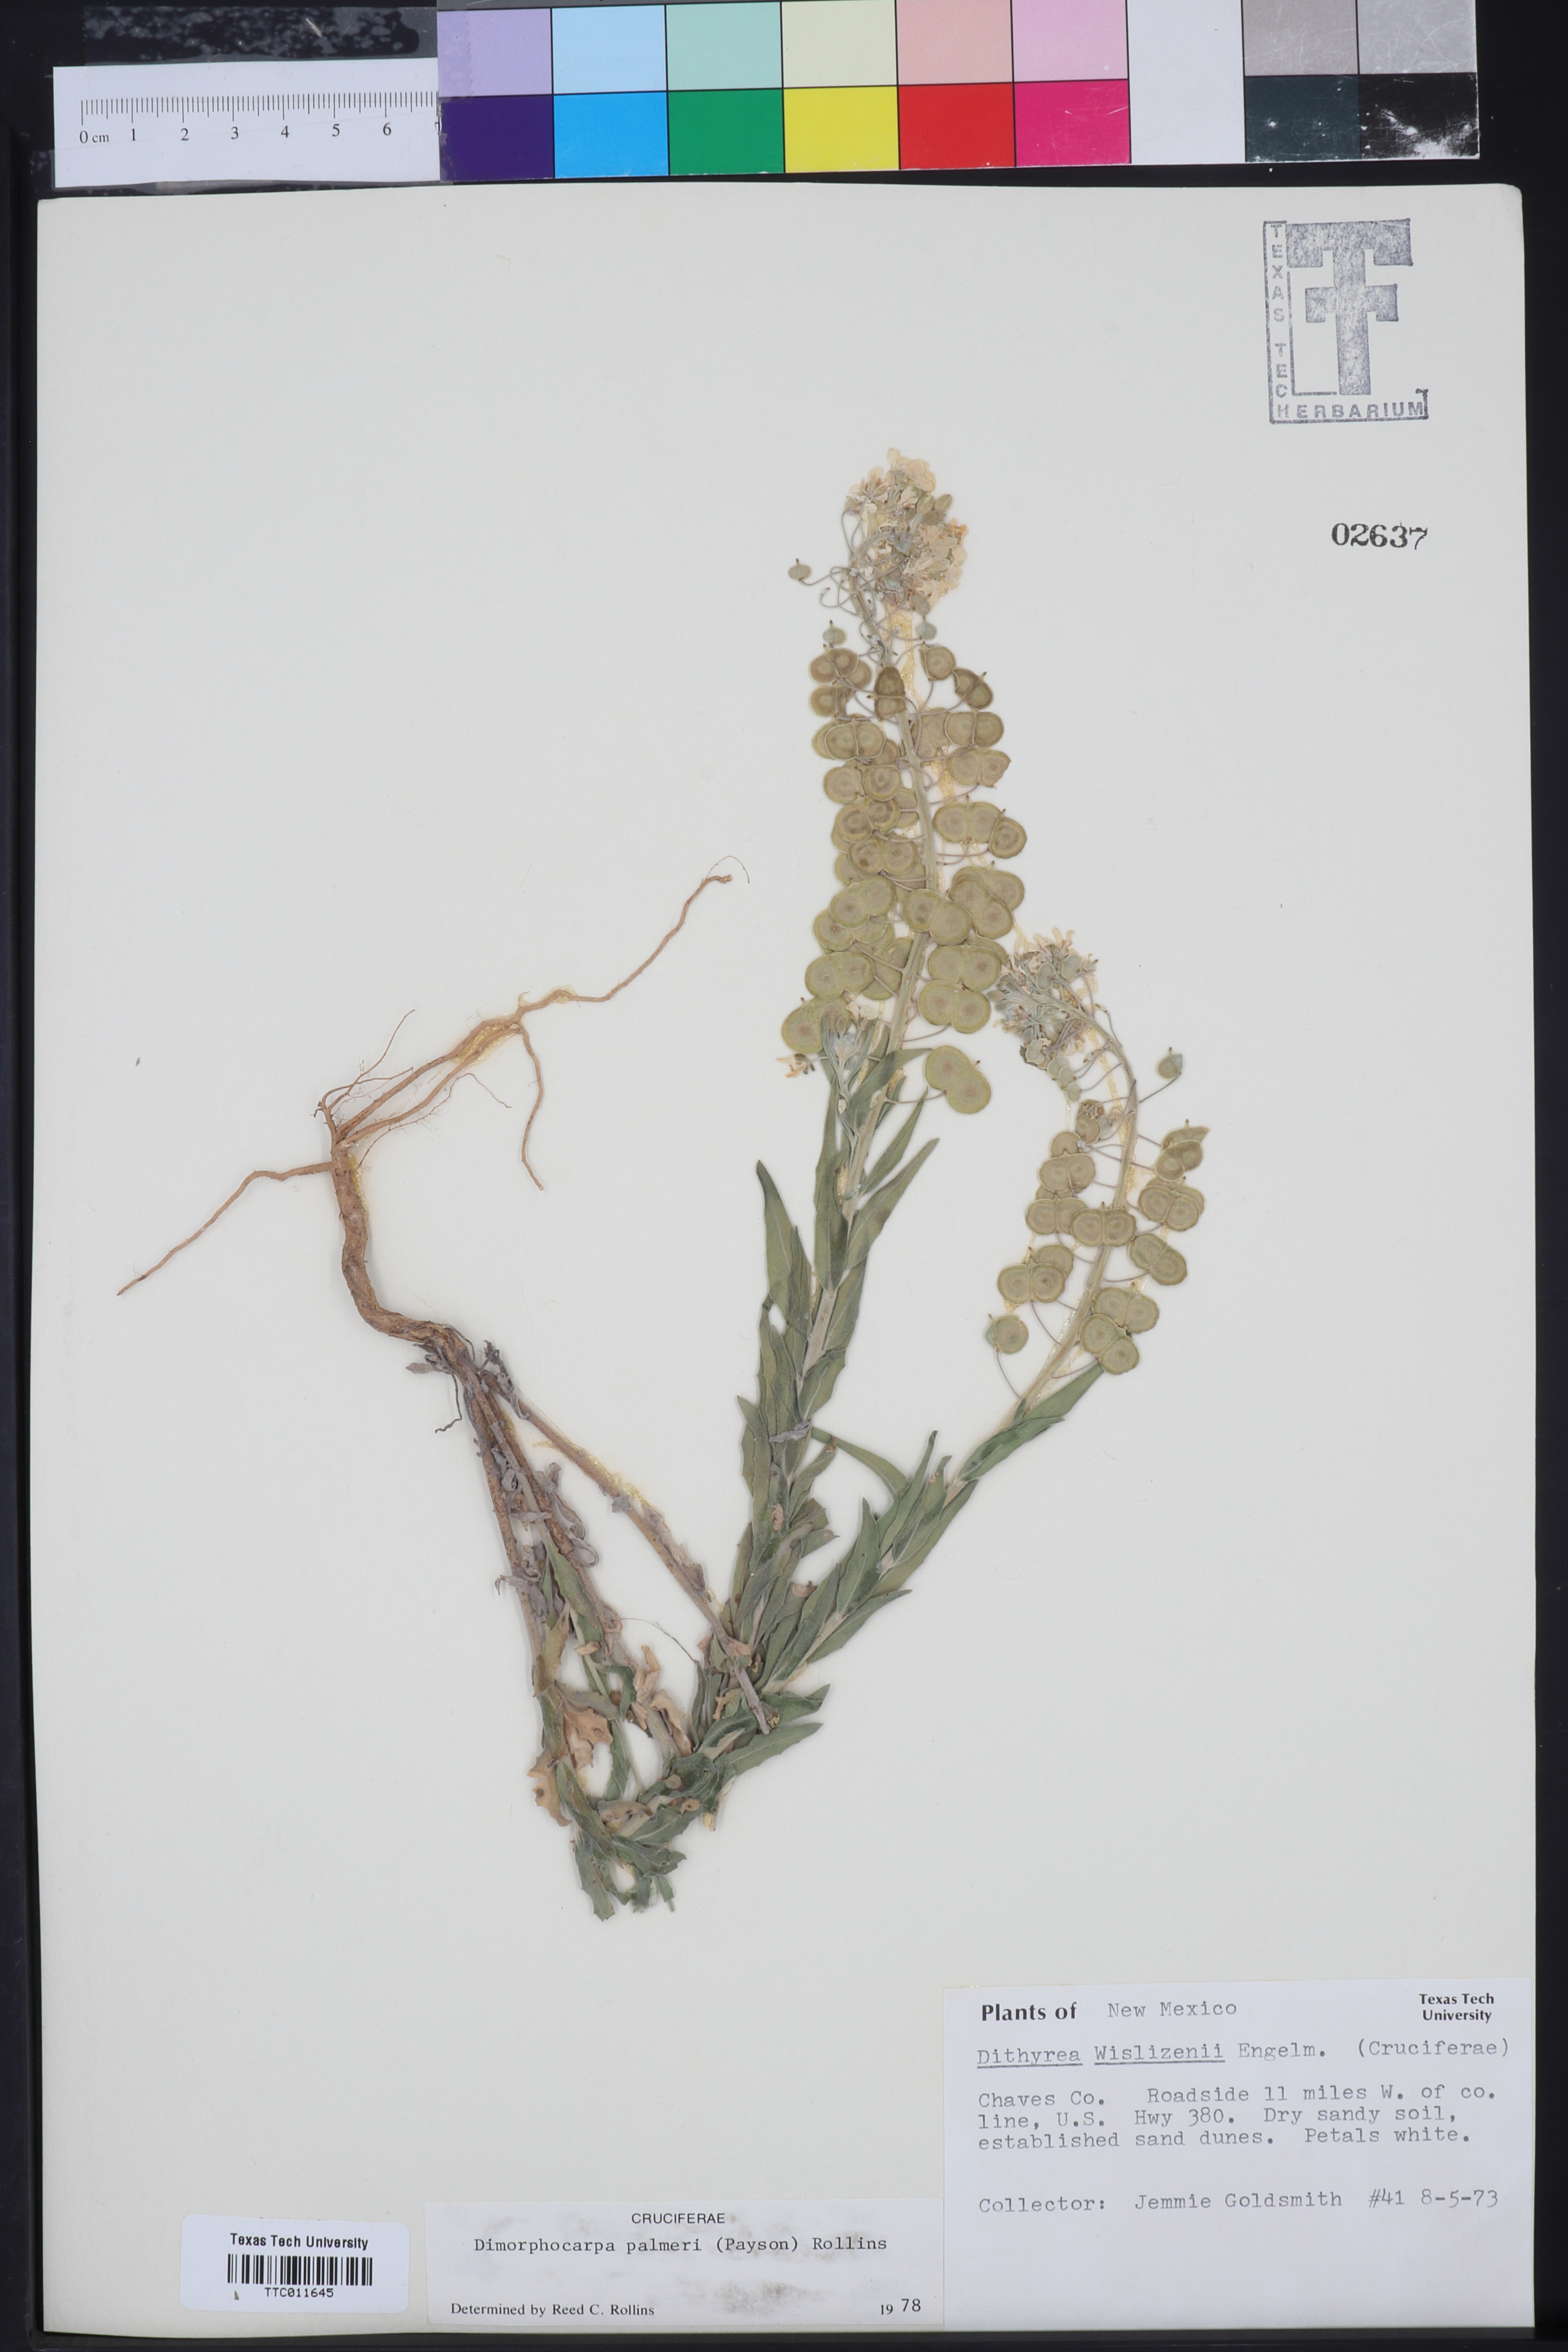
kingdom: Plantae
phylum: Tracheophyta
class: Magnoliopsida
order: Brassicales
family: Brassicaceae
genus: Dimorphocarpa
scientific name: Dimorphocarpa candicans
